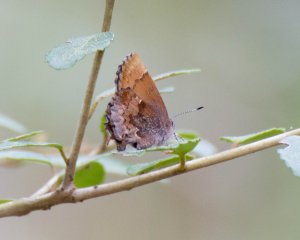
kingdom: Animalia
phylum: Arthropoda
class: Insecta
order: Lepidoptera
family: Lycaenidae
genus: Incisalia
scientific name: Incisalia henrici
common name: Henry's Elfin
